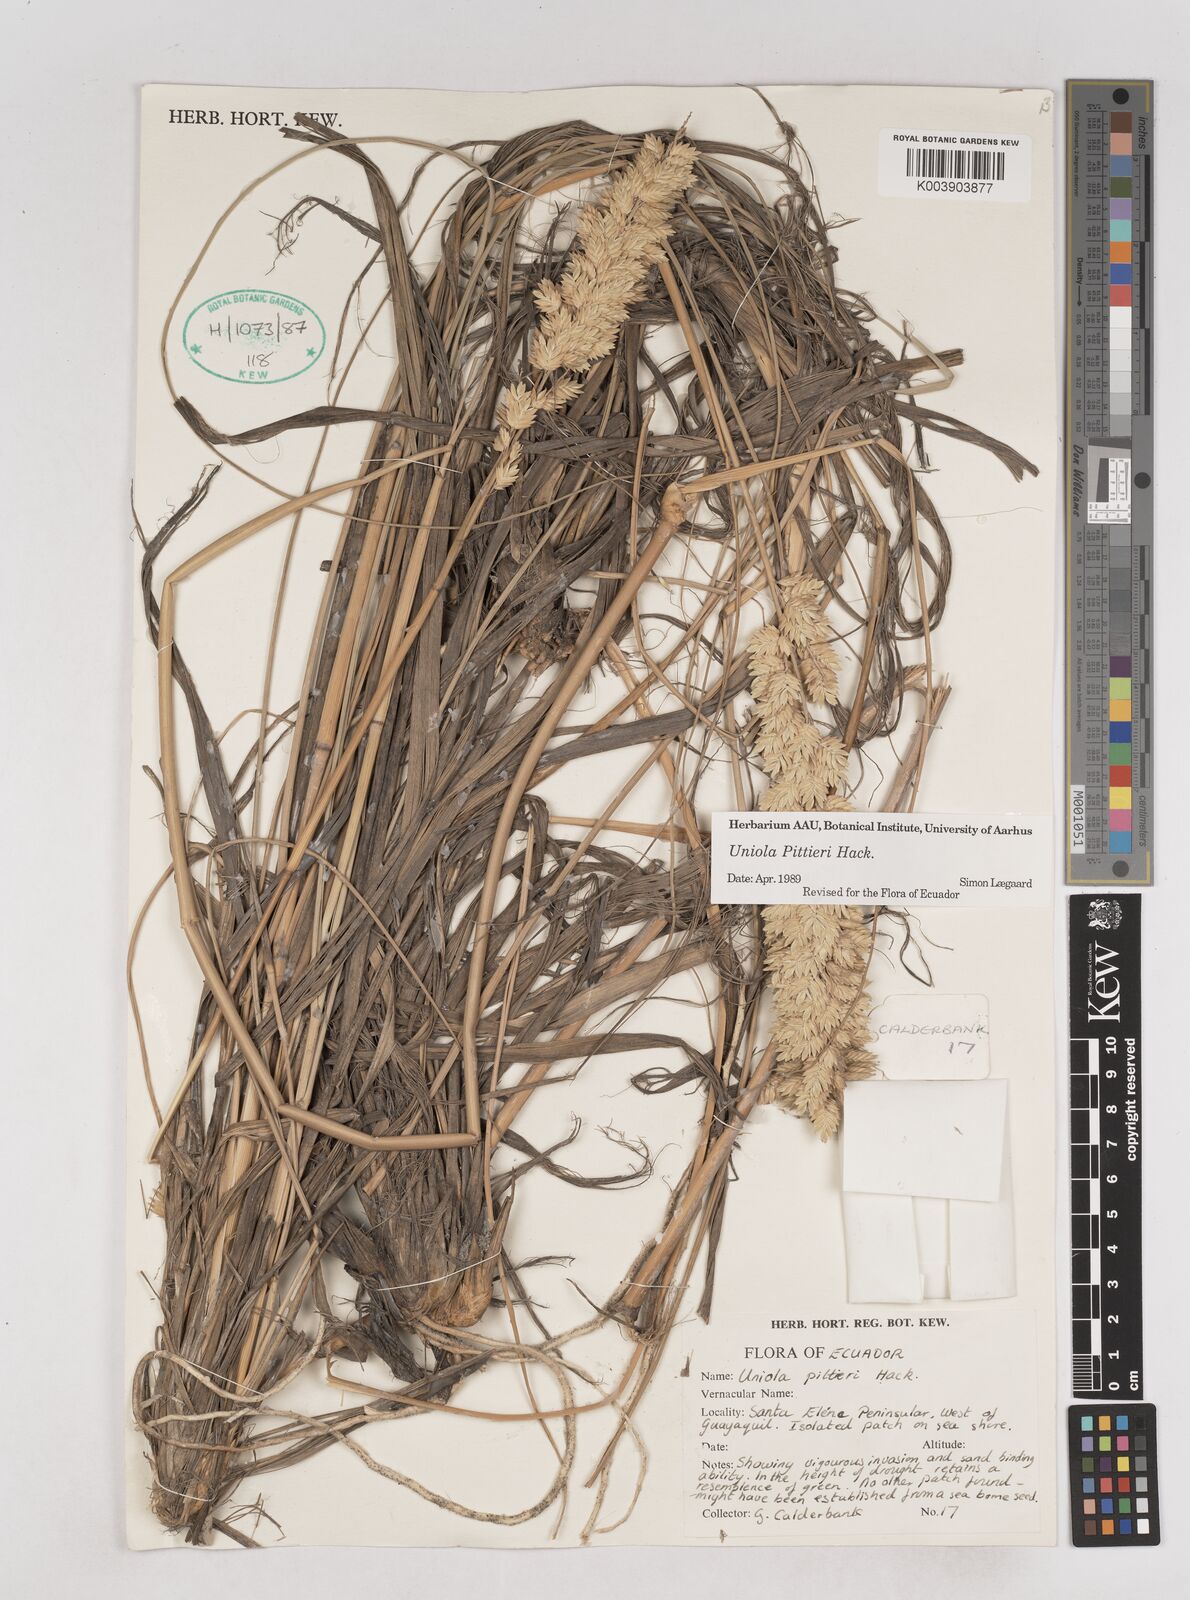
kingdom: Plantae
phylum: Tracheophyta
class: Liliopsida
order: Poales
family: Poaceae
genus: Uniola
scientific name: Uniola pittieri
